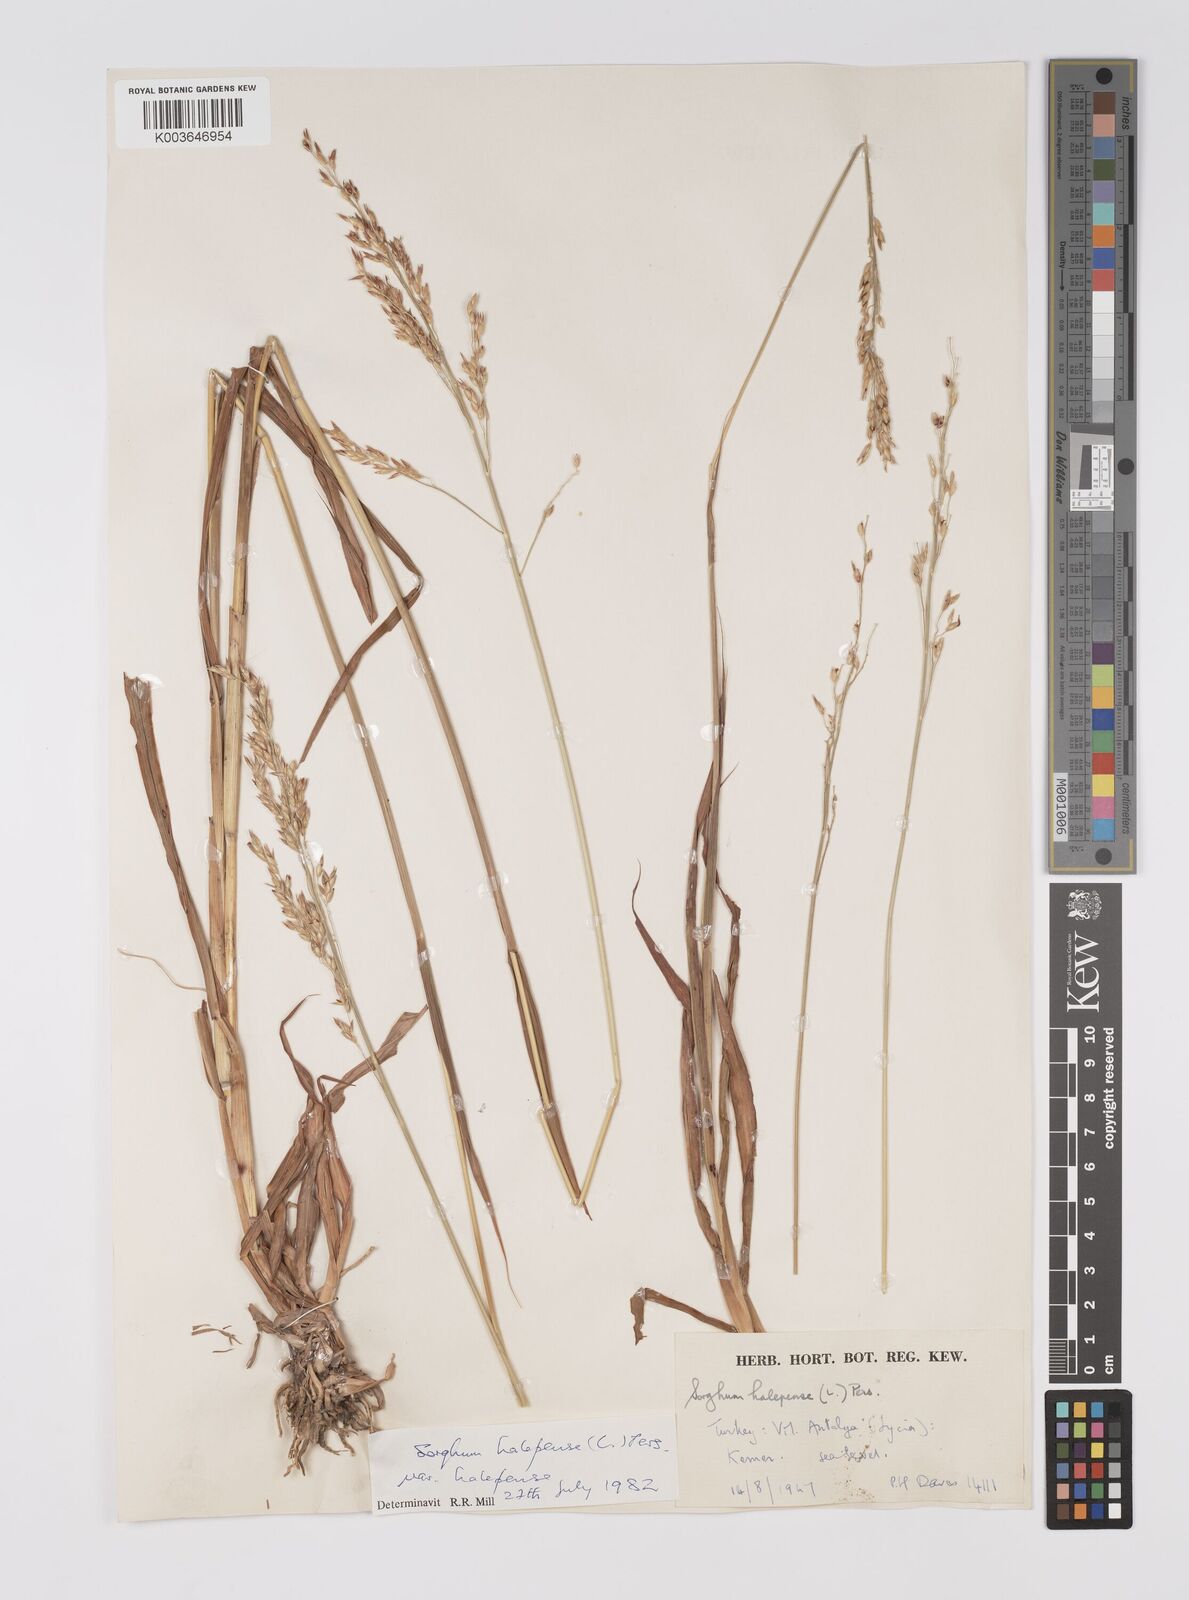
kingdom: Plantae
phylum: Tracheophyta
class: Liliopsida
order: Poales
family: Poaceae
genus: Sorghum
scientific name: Sorghum halepense
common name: Johnson-grass
